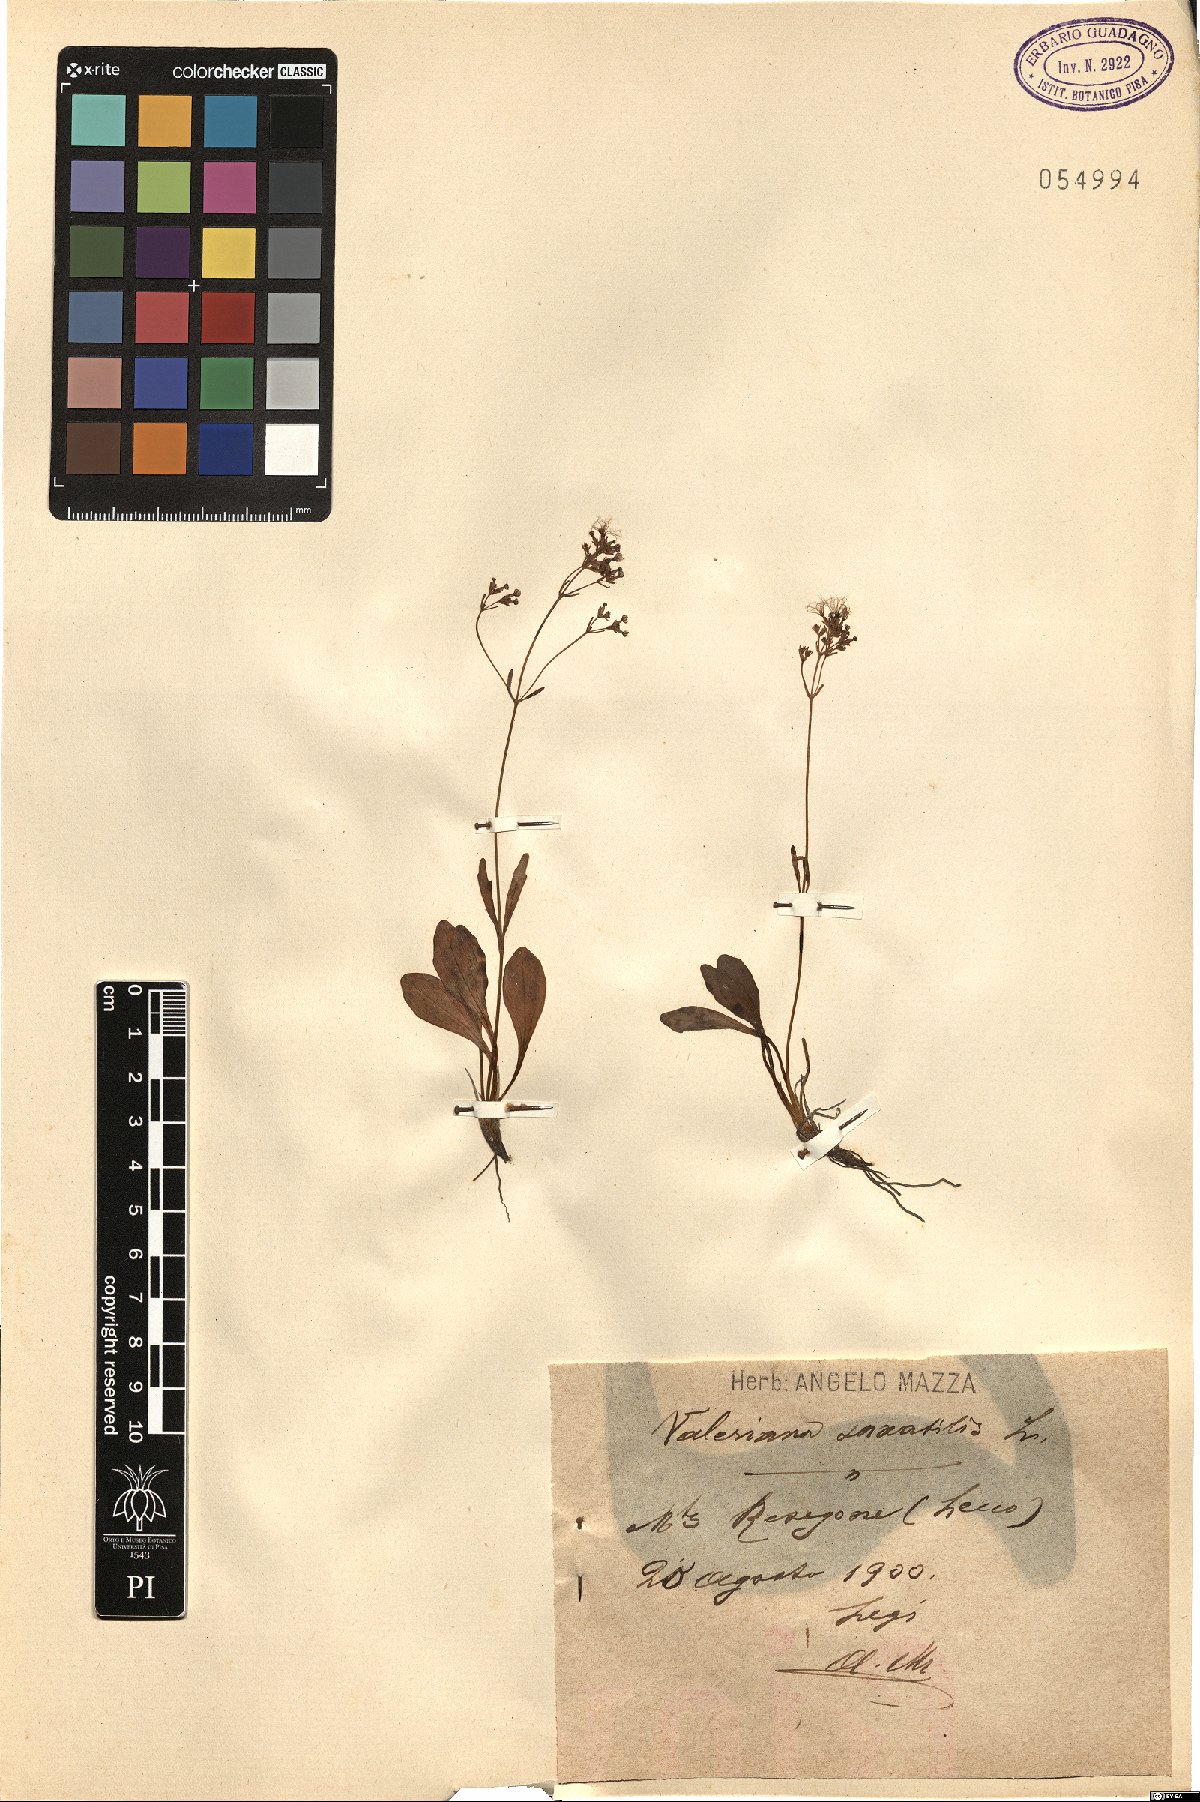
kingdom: Plantae
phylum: Tracheophyta
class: Magnoliopsida
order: Dipsacales
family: Caprifoliaceae
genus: Valeriana
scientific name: Valeriana saxatilis
